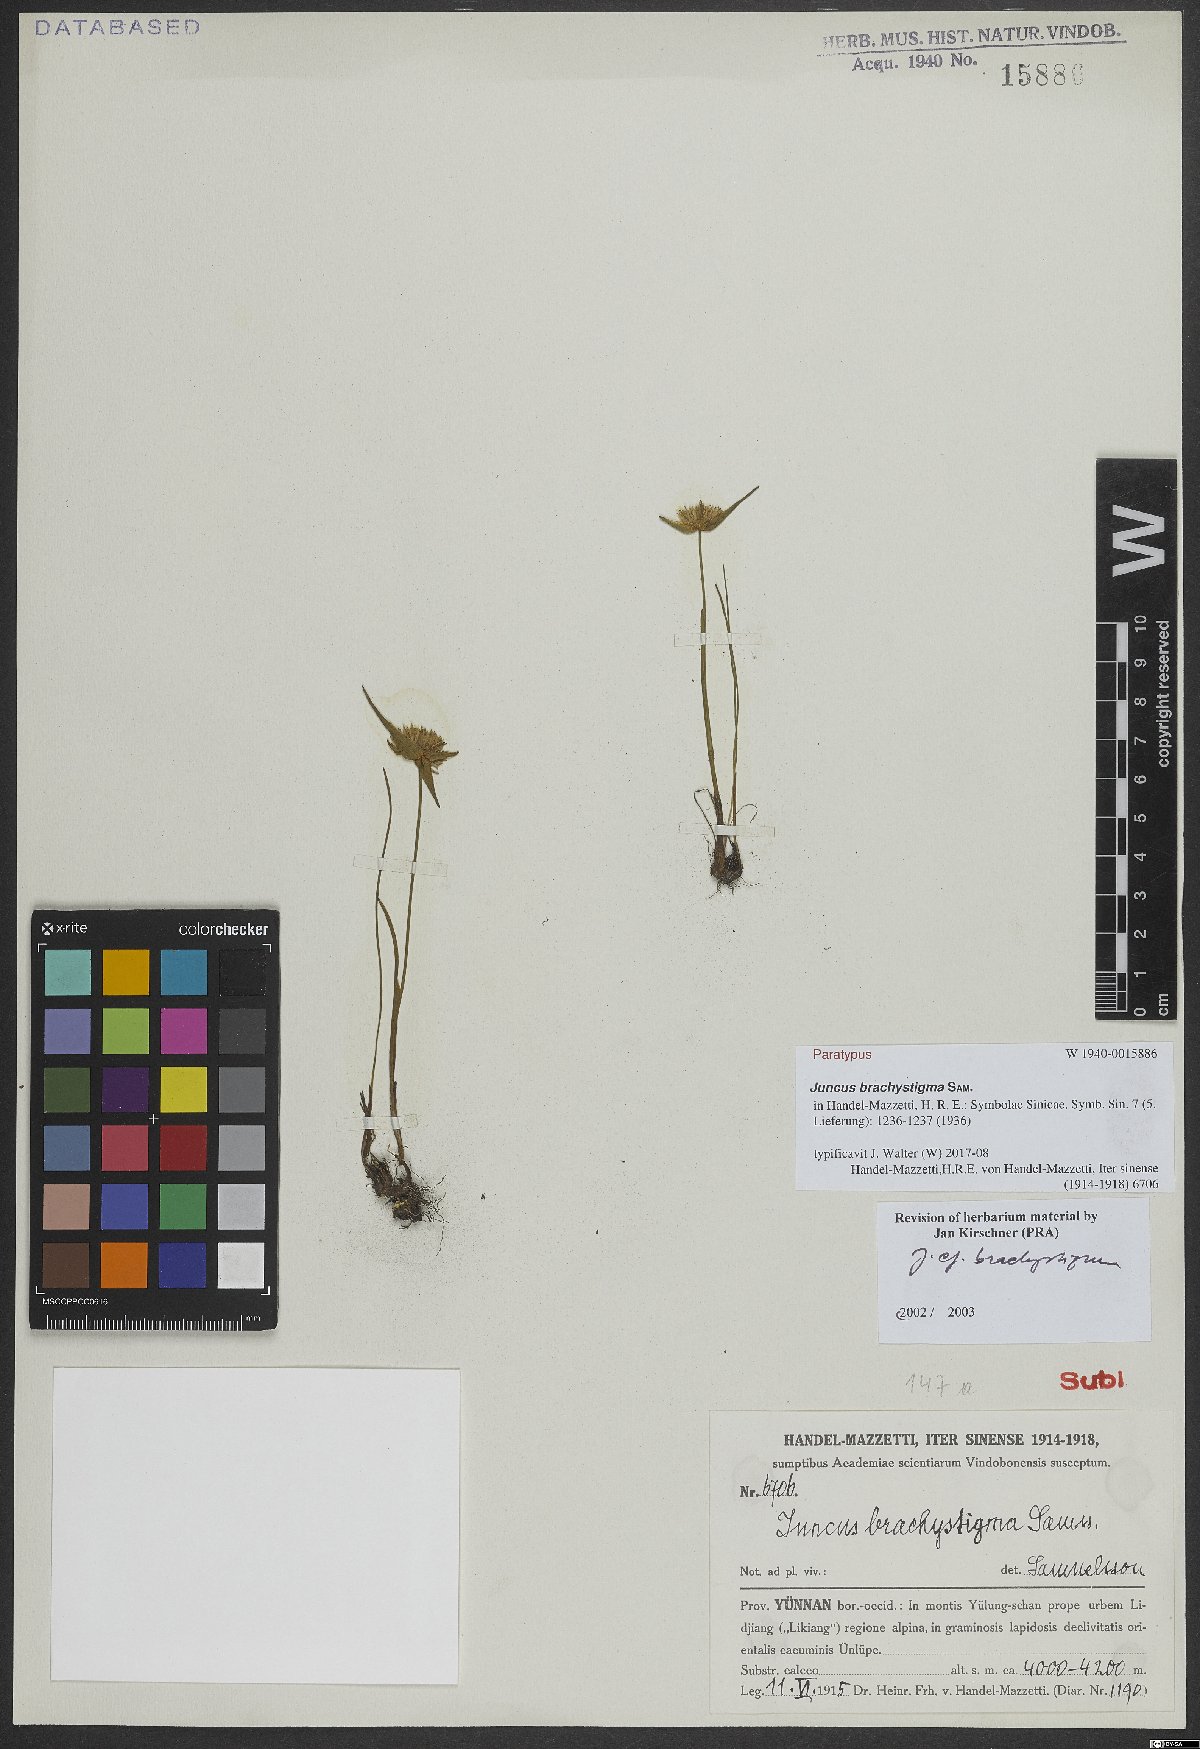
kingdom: Plantae
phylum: Tracheophyta
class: Liliopsida
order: Poales
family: Juncaceae
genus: Juncus
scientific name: Juncus brachystigma
